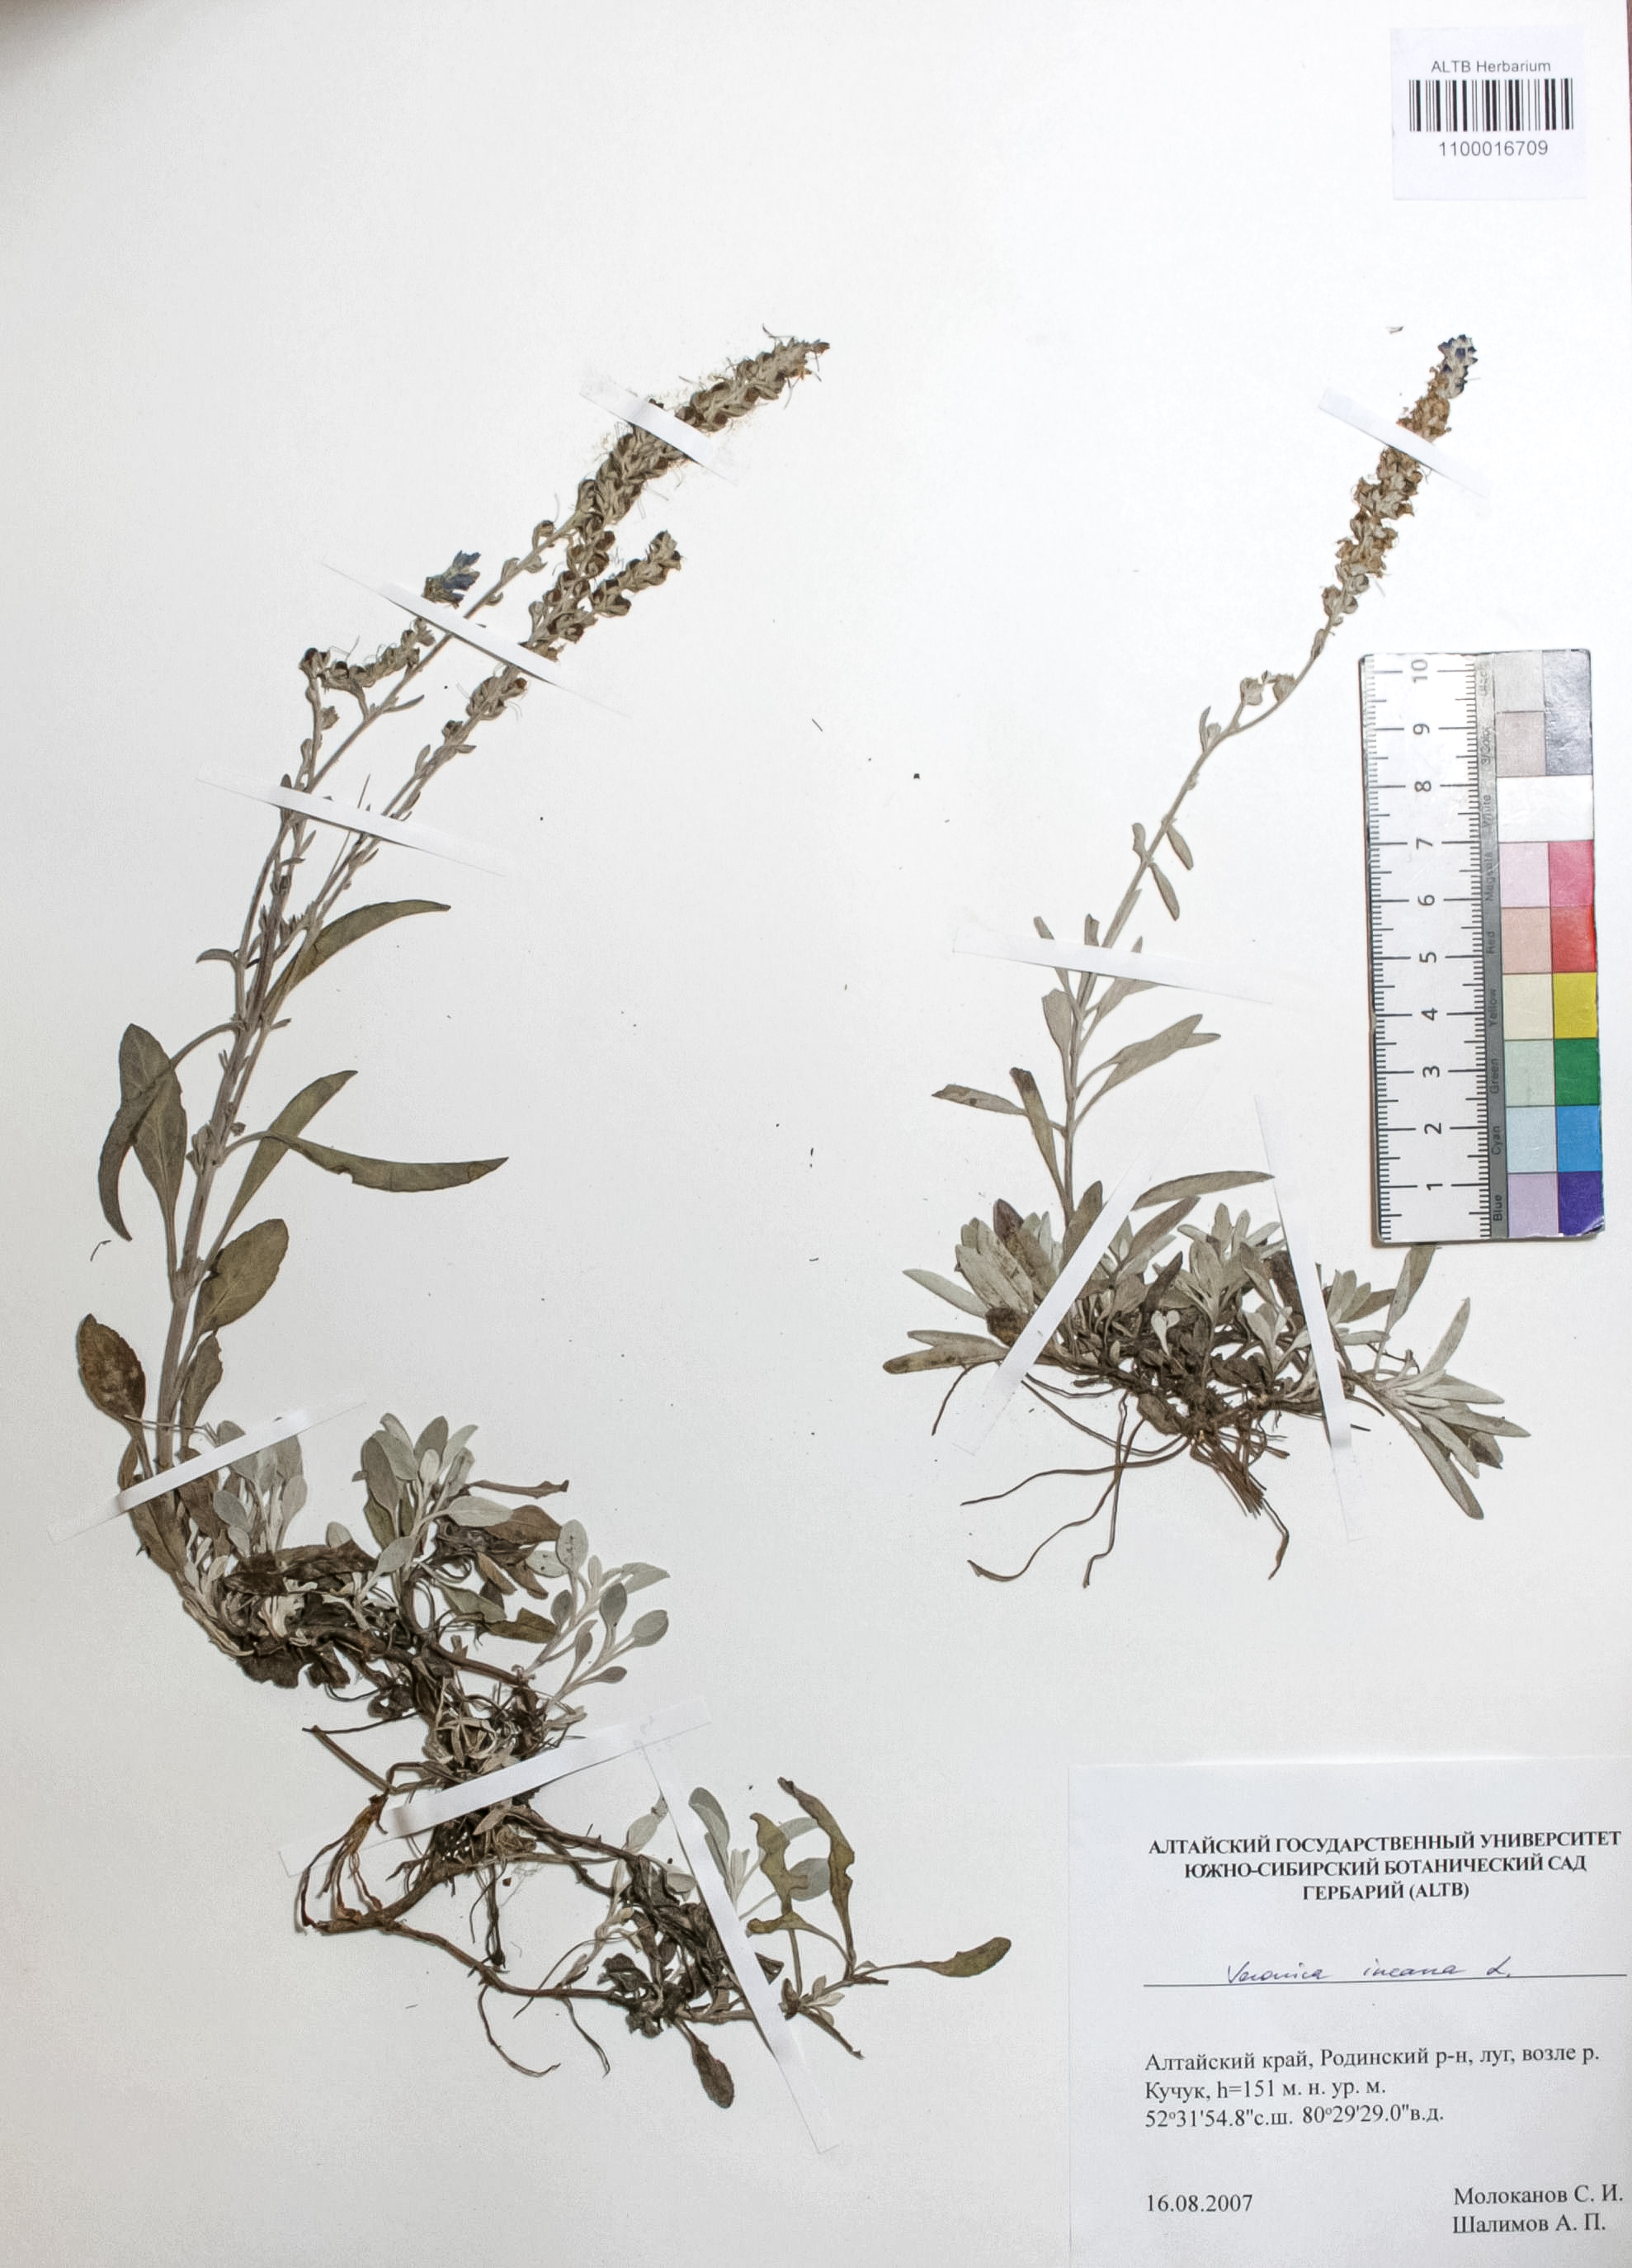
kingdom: Plantae
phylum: Tracheophyta
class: Magnoliopsida
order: Lamiales
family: Plantaginaceae
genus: Veronica
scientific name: Veronica incana
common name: Silver speedwell
